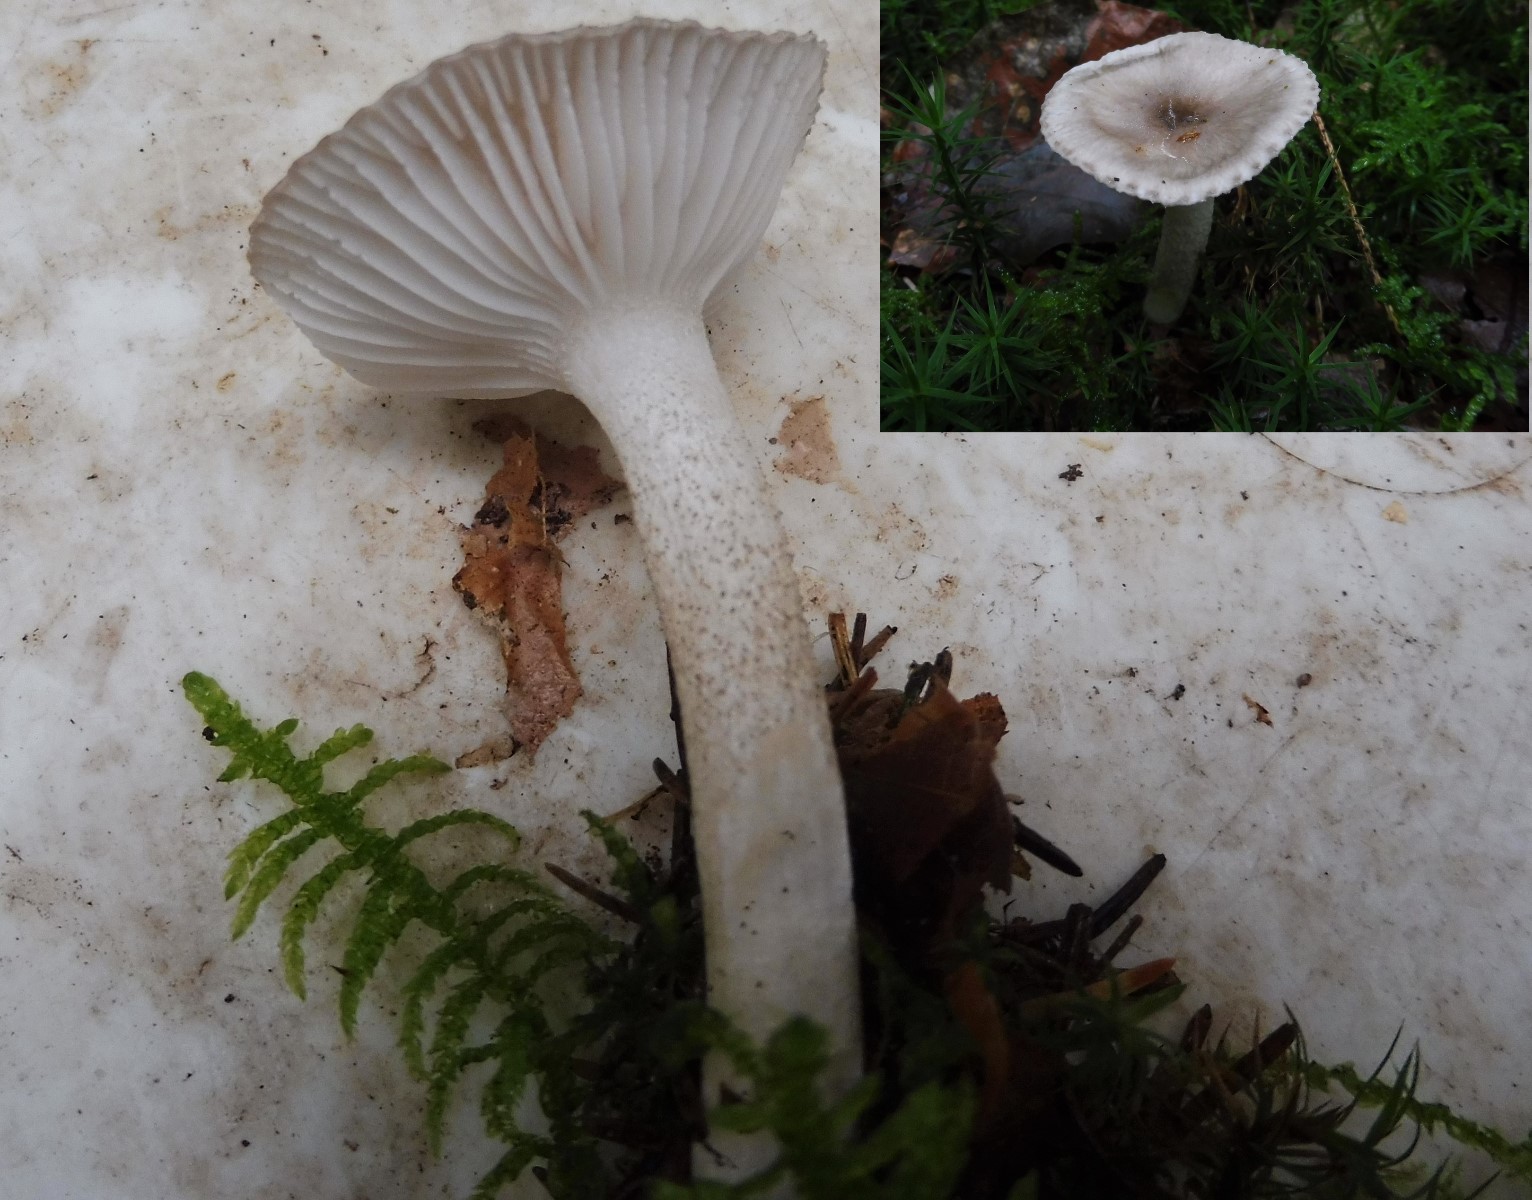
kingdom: Fungi
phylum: Basidiomycota
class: Agaricomycetes
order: Agaricales
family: Hygrophoraceae
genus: Hygrophorus
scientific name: Hygrophorus pustulatus
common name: mørkprikket sneglehat
